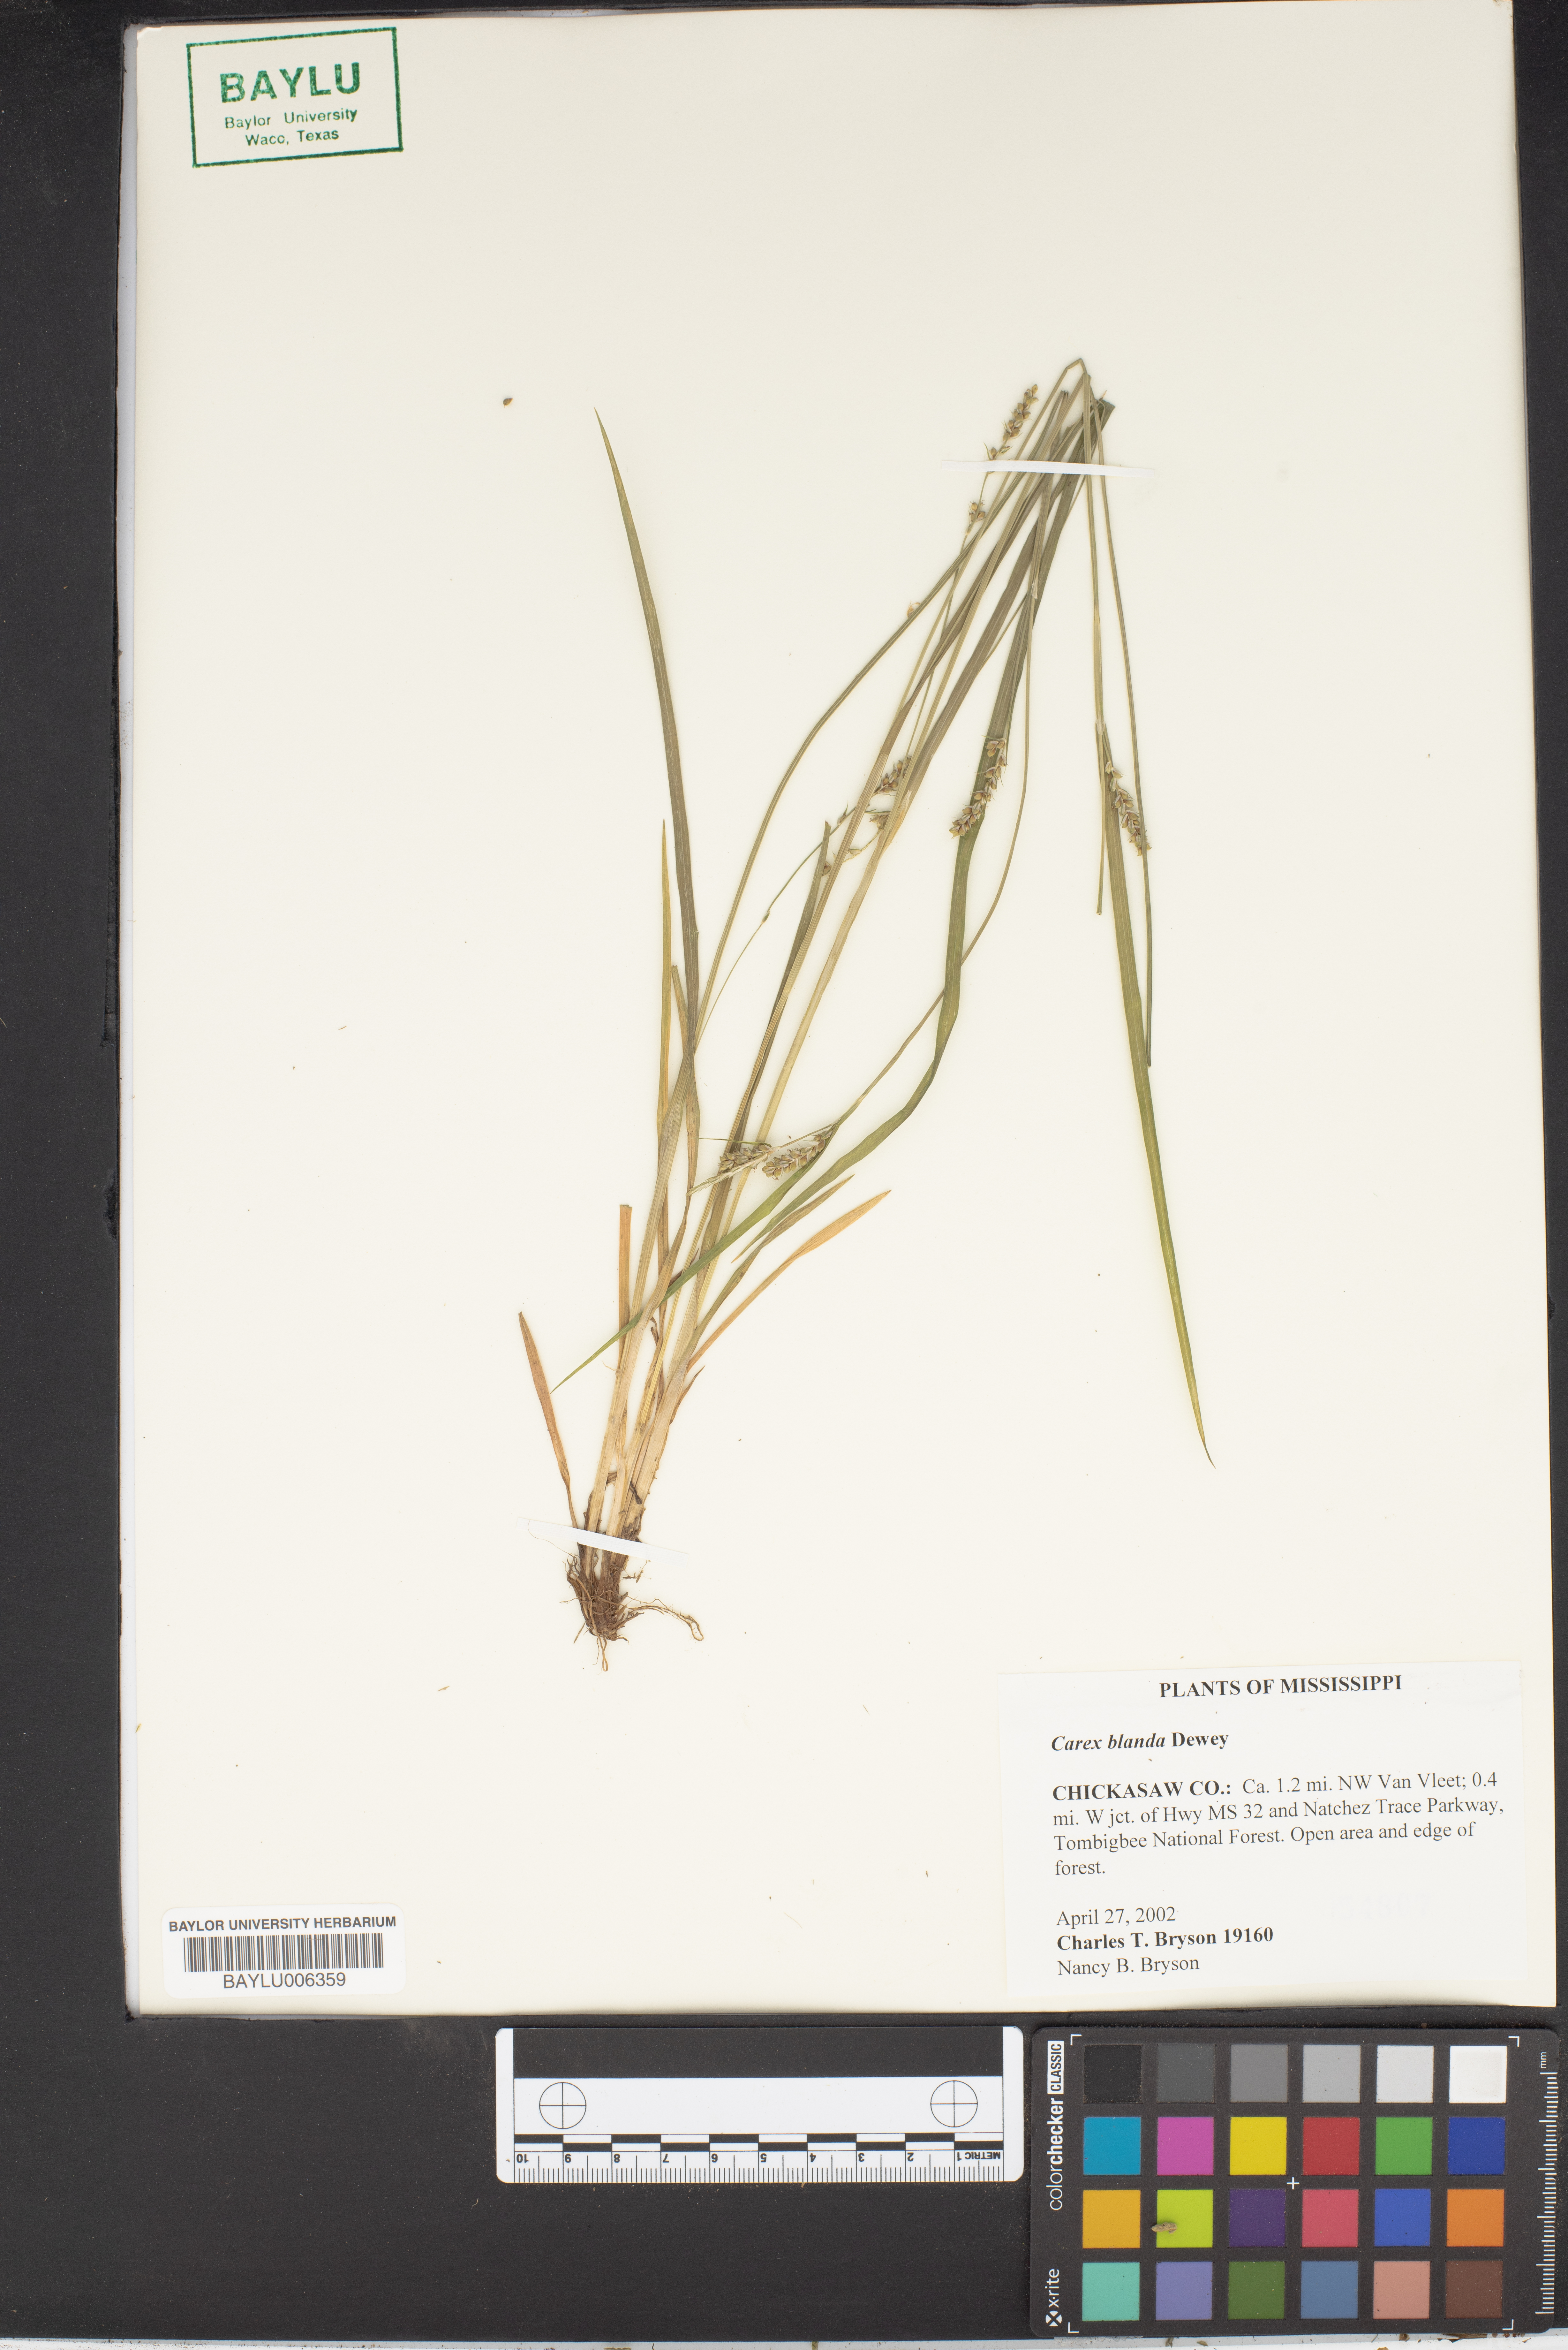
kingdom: Plantae
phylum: Tracheophyta
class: Liliopsida
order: Poales
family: Cyperaceae
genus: Carex
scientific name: Carex blanda
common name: Bland sedge
